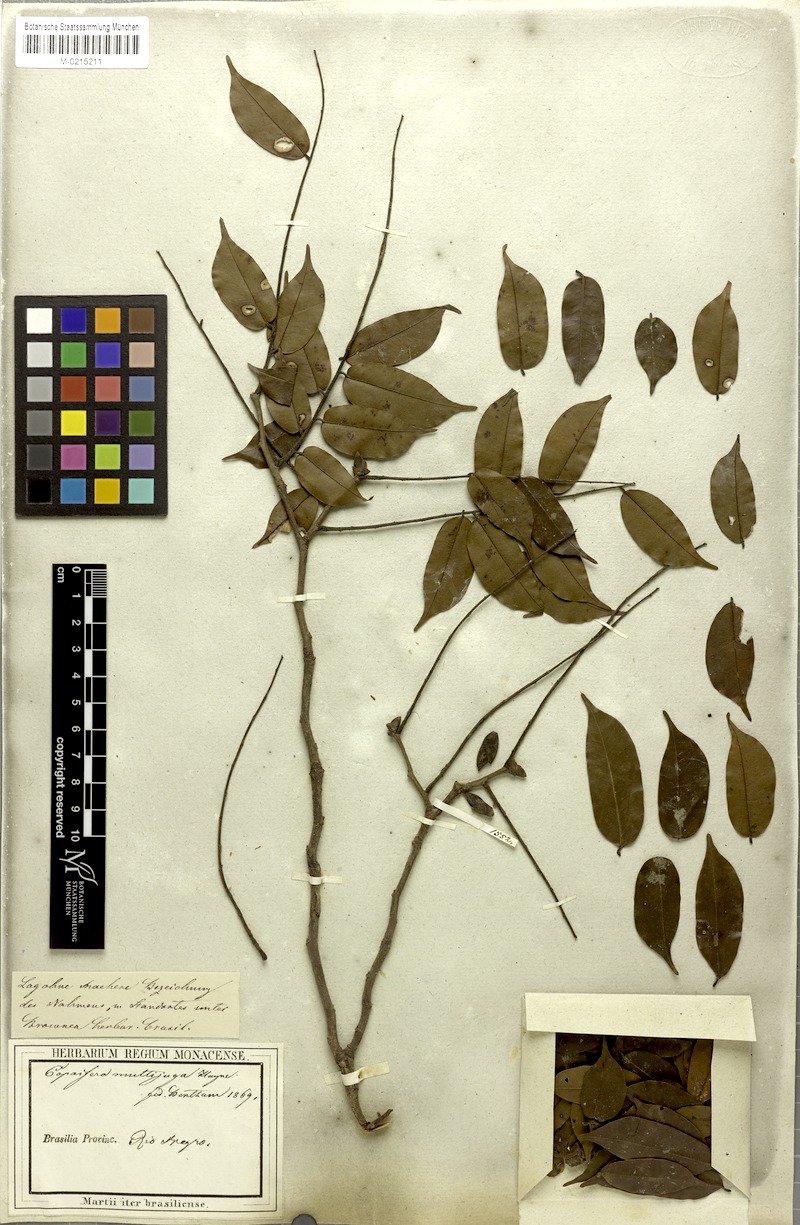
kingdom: Plantae
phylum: Tracheophyta
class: Magnoliopsida
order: Fabales
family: Fabaceae
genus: Copaifera
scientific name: Copaifera multijuga
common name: Brazilian copaiba
